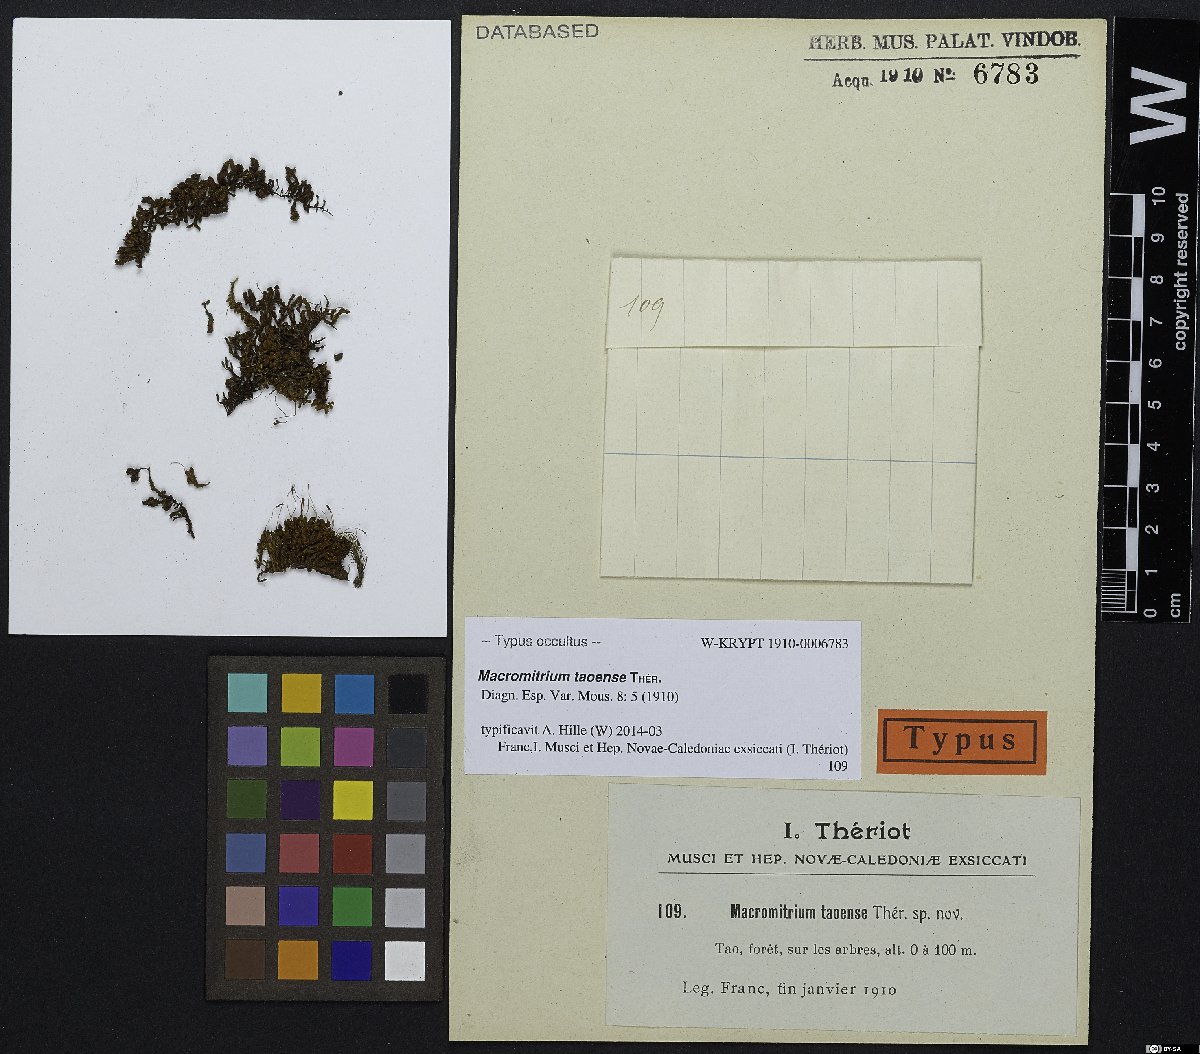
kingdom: Plantae
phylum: Bryophyta
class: Bryopsida
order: Orthotrichales
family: Orthotrichaceae
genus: Macromitrium
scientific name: Macromitrium taoense
